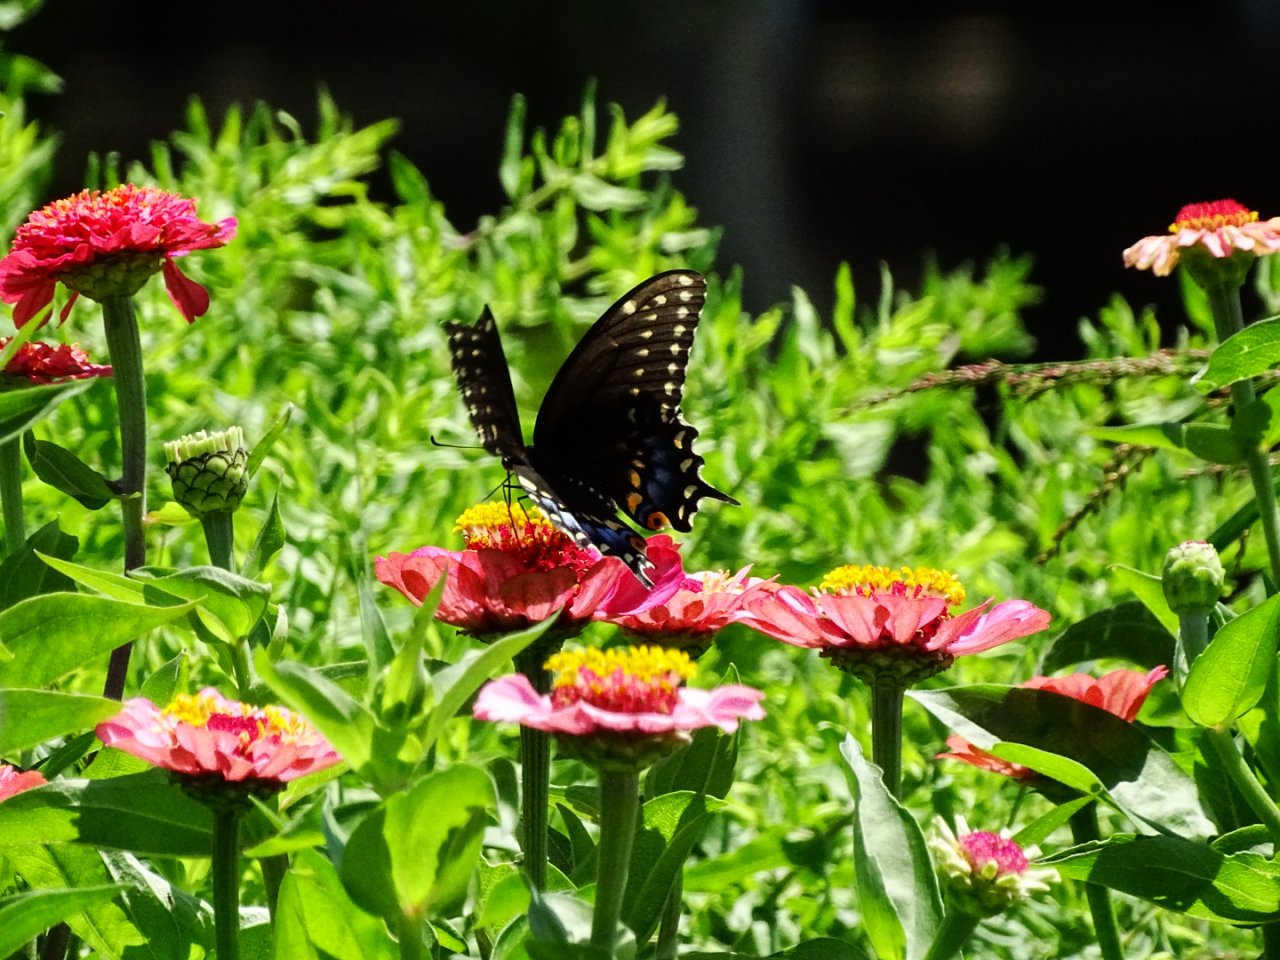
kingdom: Animalia
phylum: Arthropoda
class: Insecta
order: Lepidoptera
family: Papilionidae
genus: Papilio
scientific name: Papilio polyxenes
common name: Black Swallowtail
